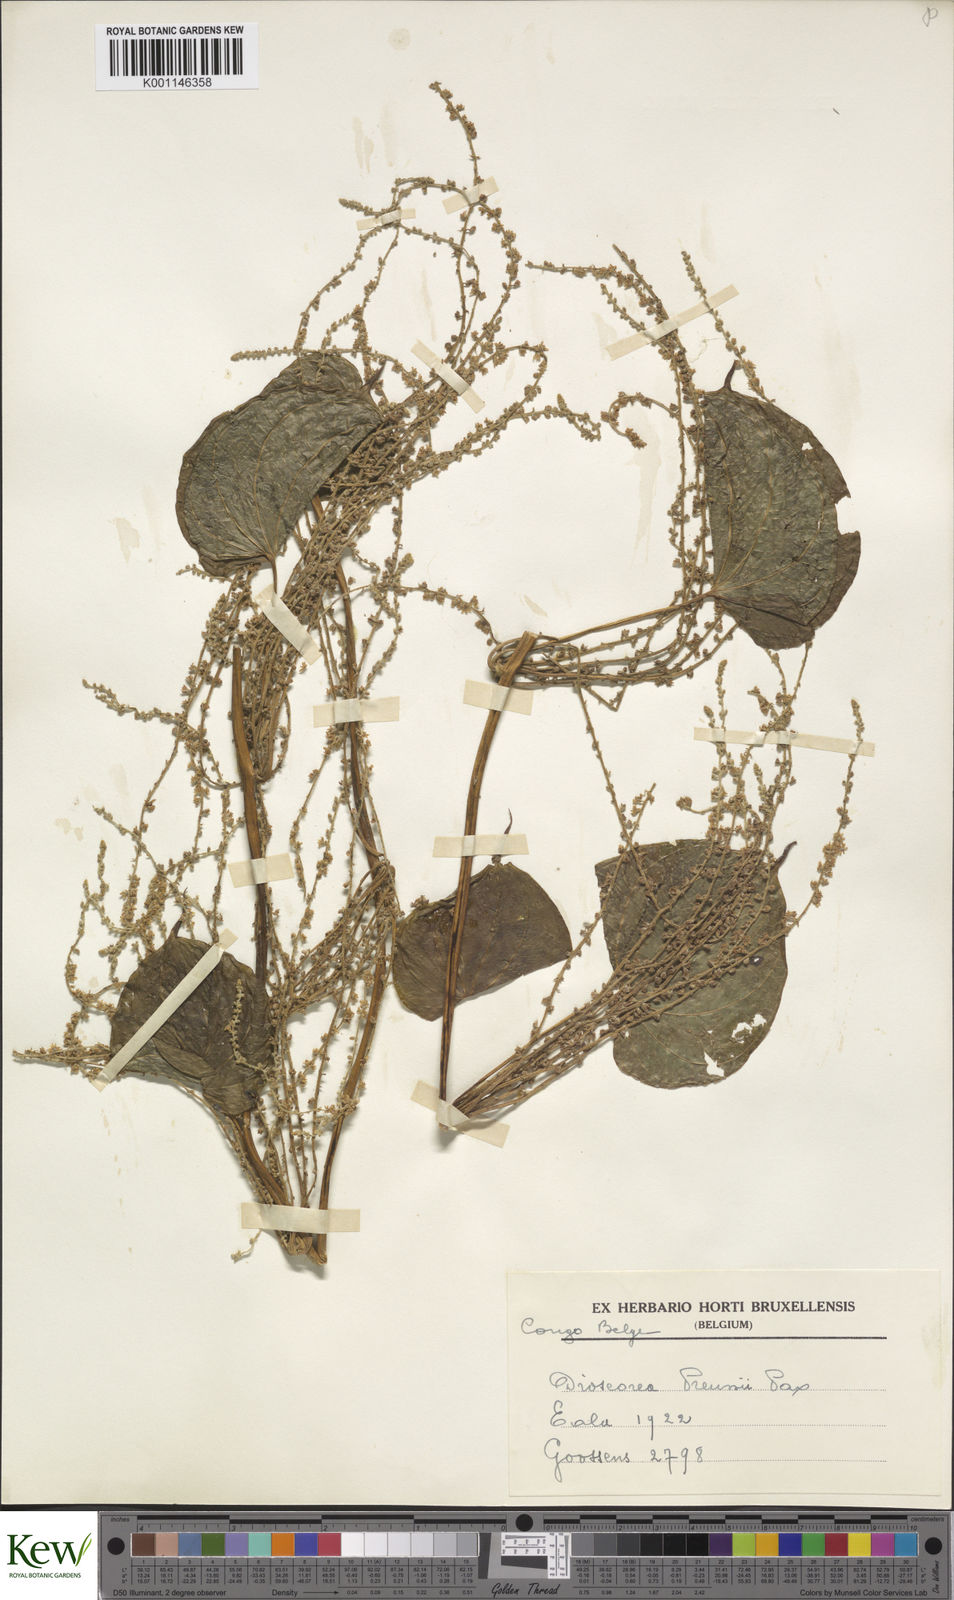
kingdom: Plantae
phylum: Tracheophyta
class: Liliopsida
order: Dioscoreales
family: Dioscoreaceae
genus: Dioscorea
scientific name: Dioscorea preussii
